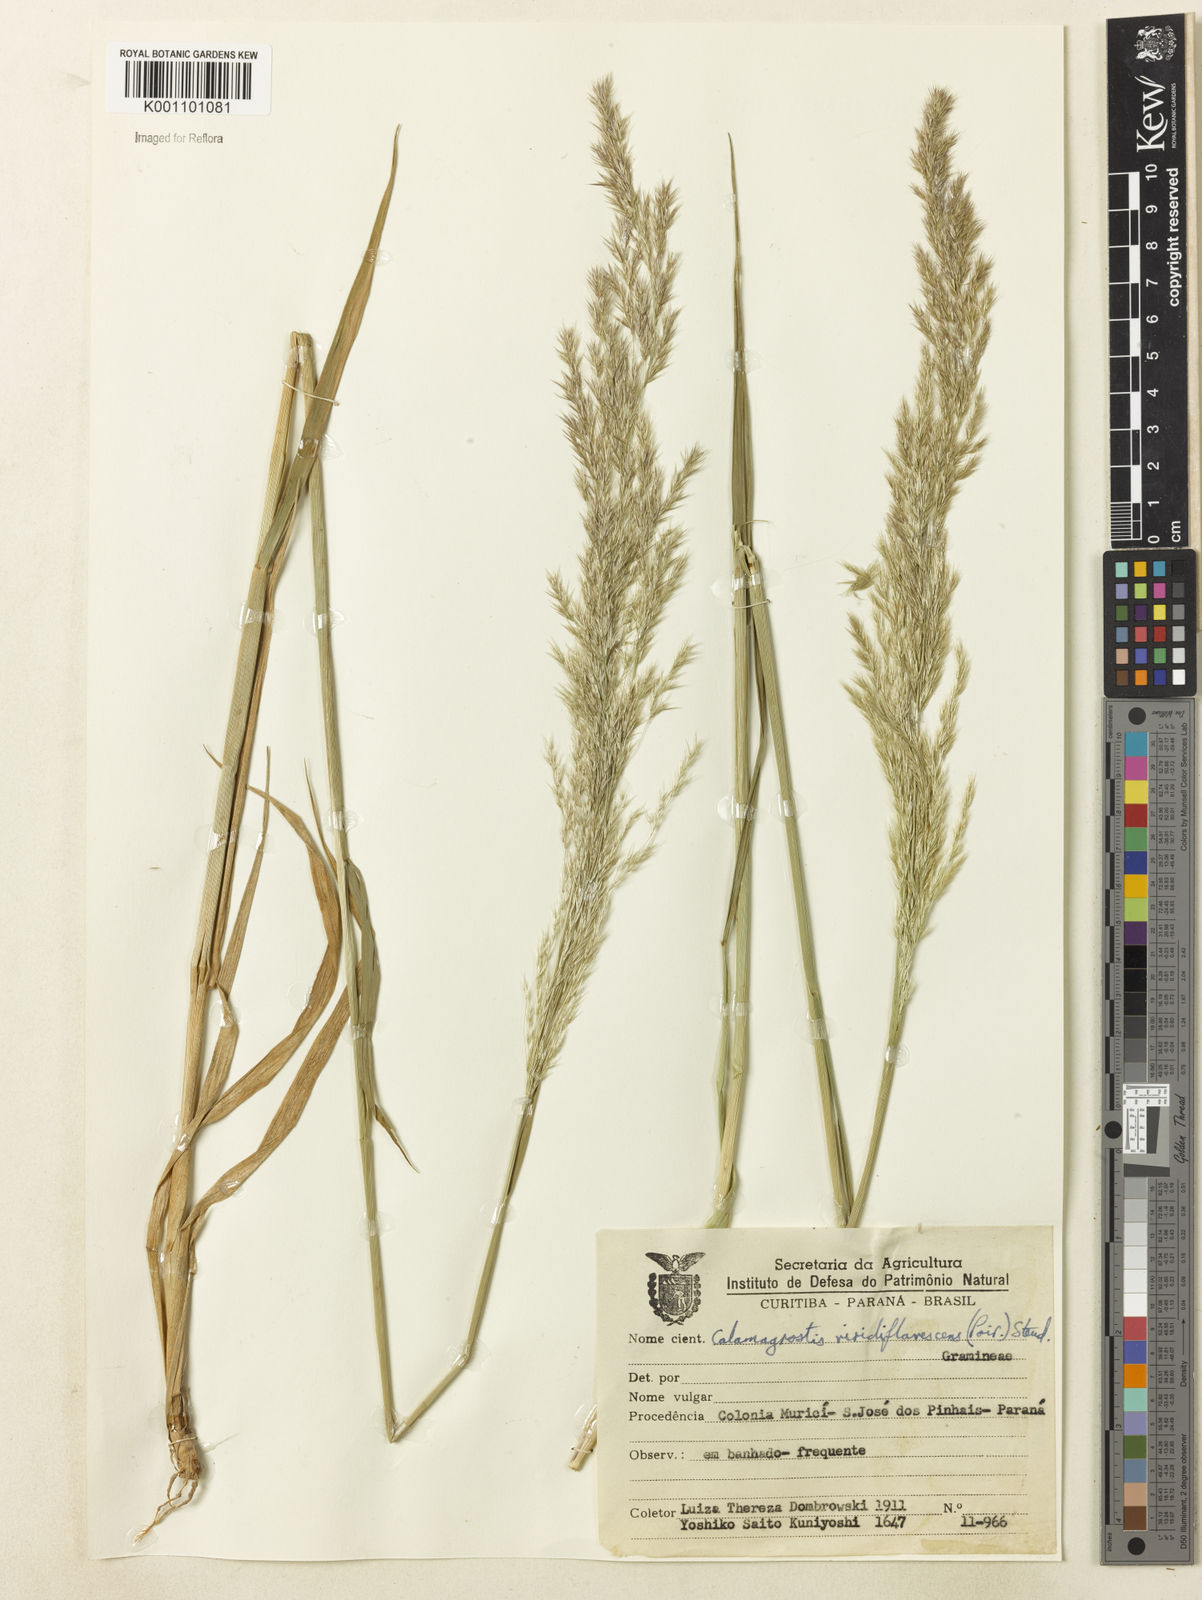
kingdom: Plantae
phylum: Tracheophyta
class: Liliopsida
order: Poales
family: Poaceae
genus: Cinnagrostis
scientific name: Cinnagrostis viridiflavescens
